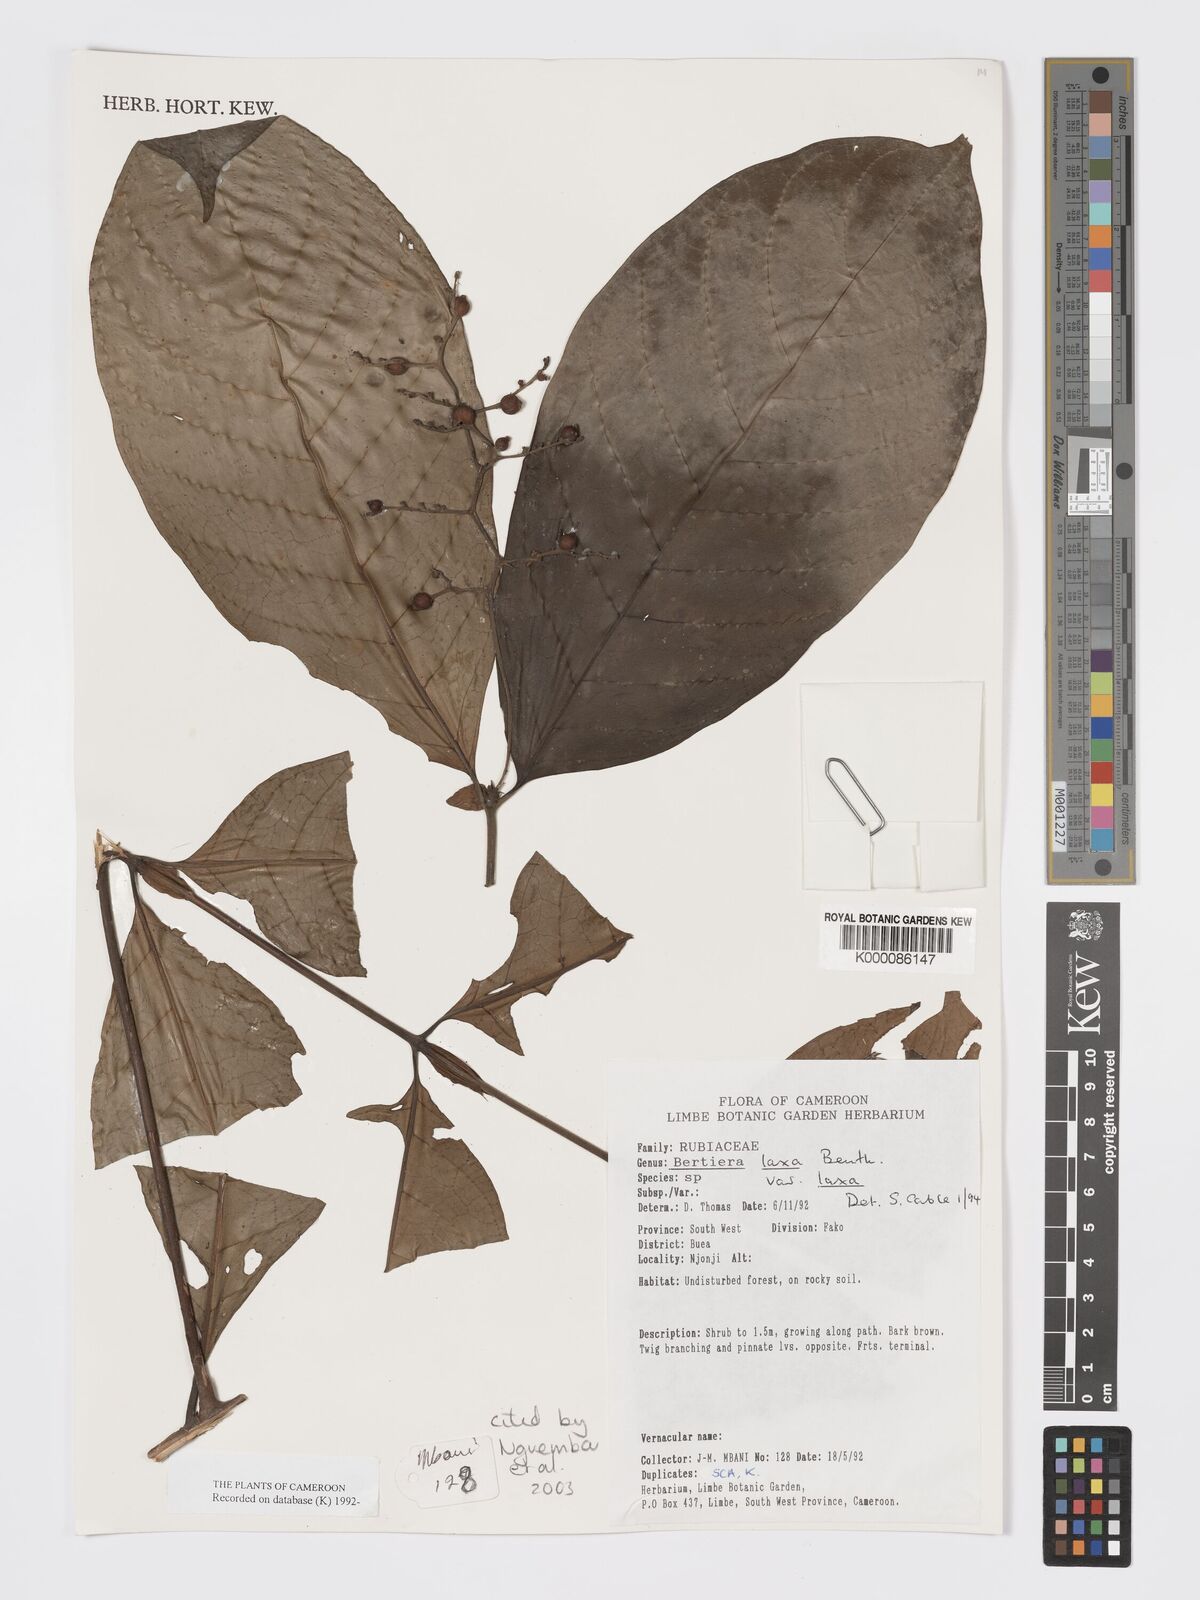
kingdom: Plantae
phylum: Tracheophyta
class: Magnoliopsida
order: Gentianales
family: Rubiaceae
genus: Bertiera
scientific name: Bertiera laxa
